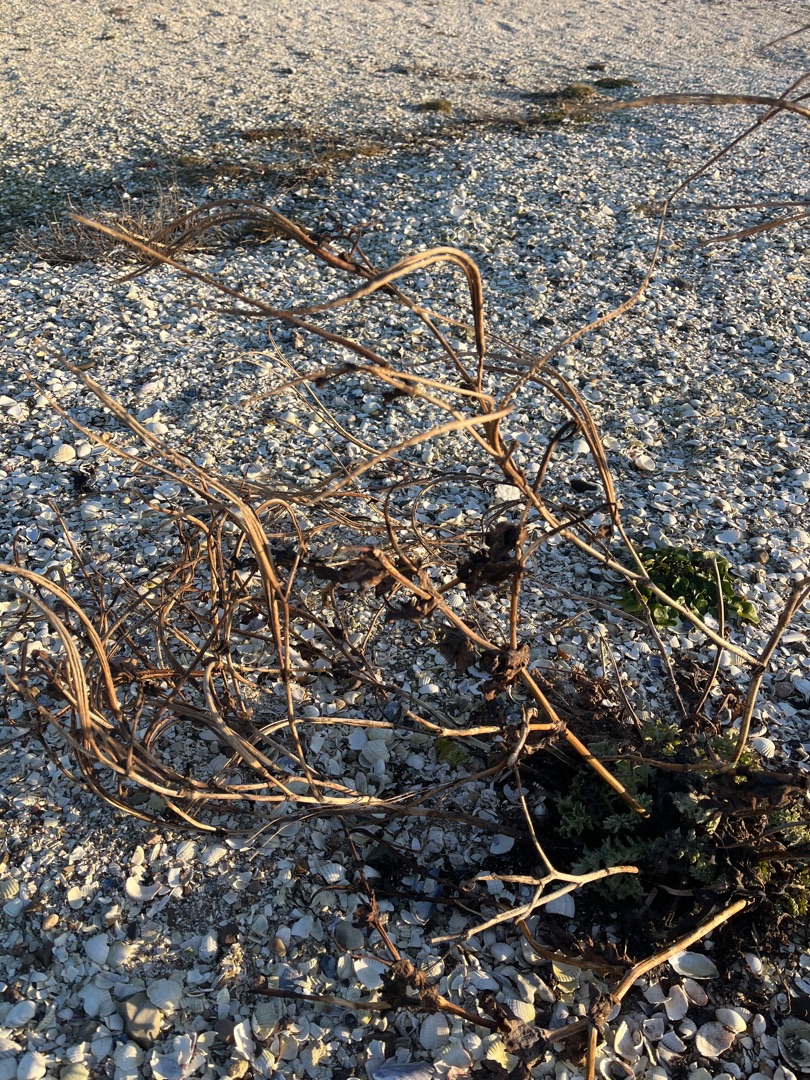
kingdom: Plantae
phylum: Tracheophyta
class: Magnoliopsida
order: Ranunculales
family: Papaveraceae
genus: Glaucium
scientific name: Glaucium flavum
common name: Hornskulpe
